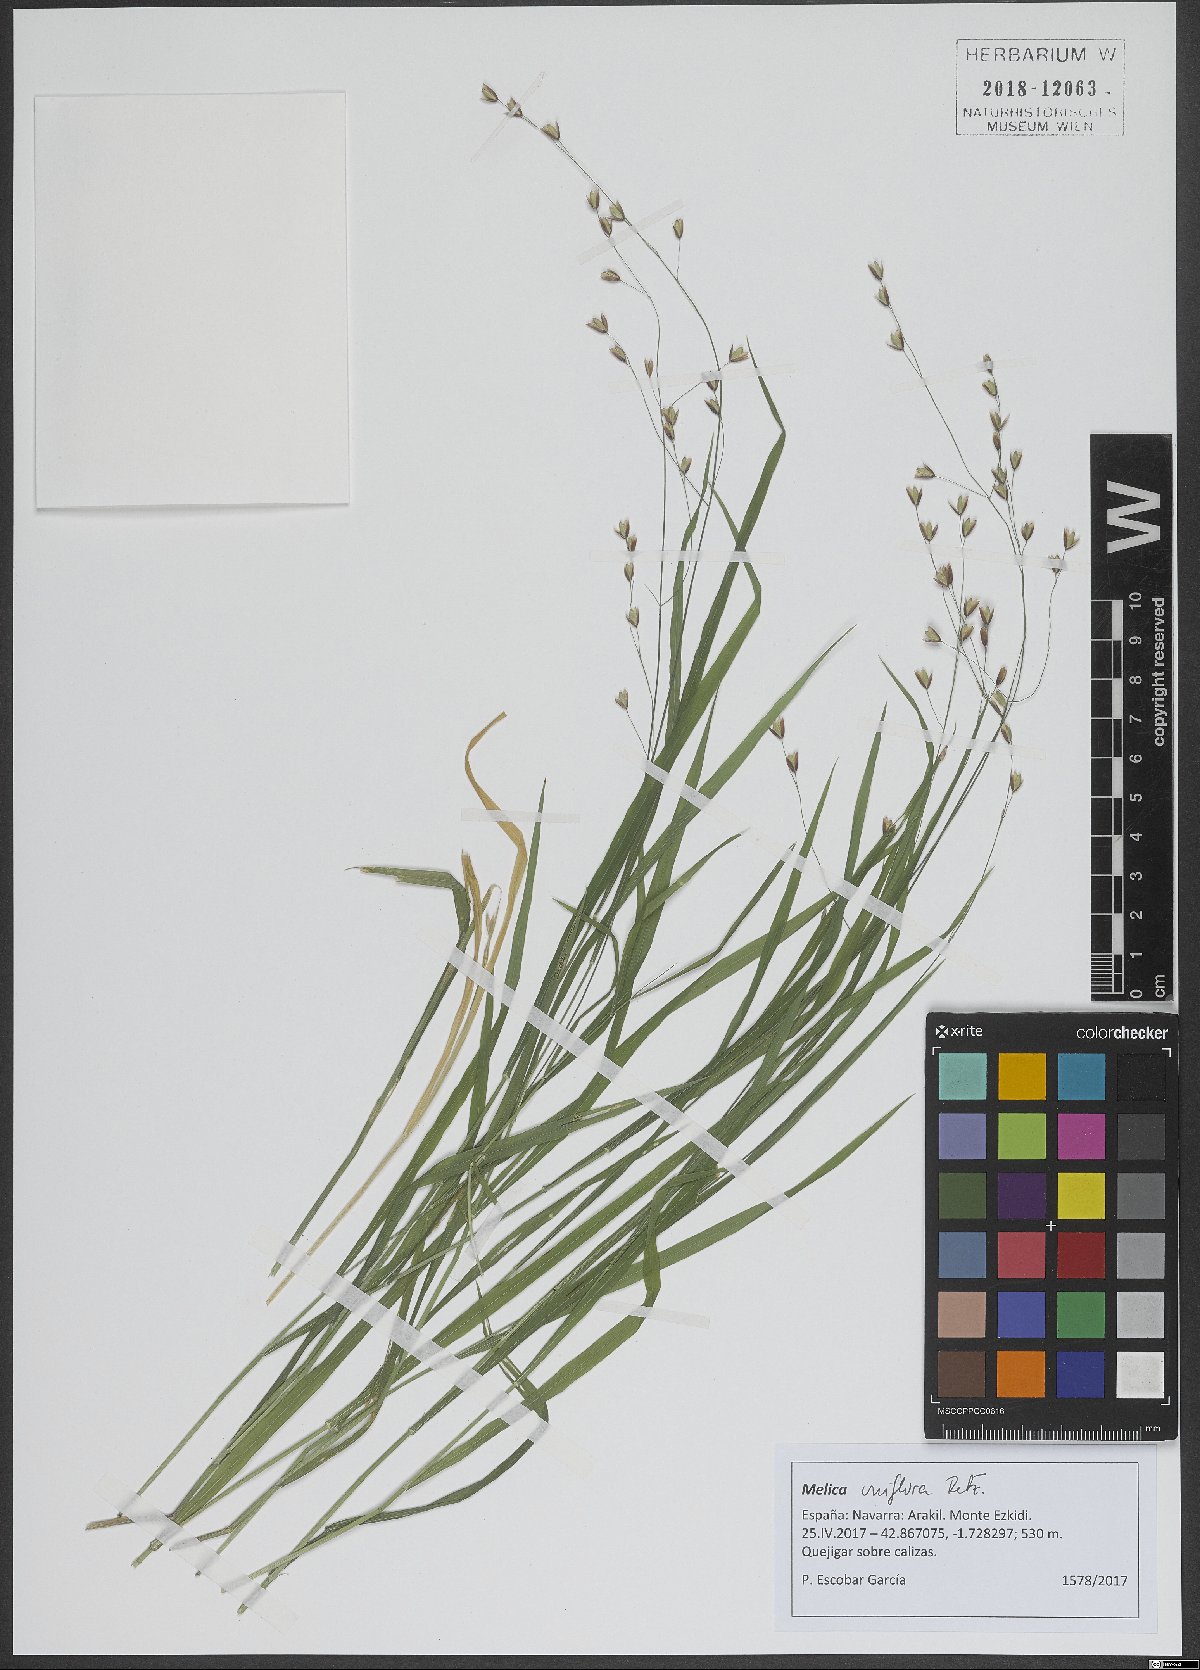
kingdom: Plantae
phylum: Tracheophyta
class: Liliopsida
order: Poales
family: Poaceae
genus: Melica
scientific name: Melica uniflora
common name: Wood melick
